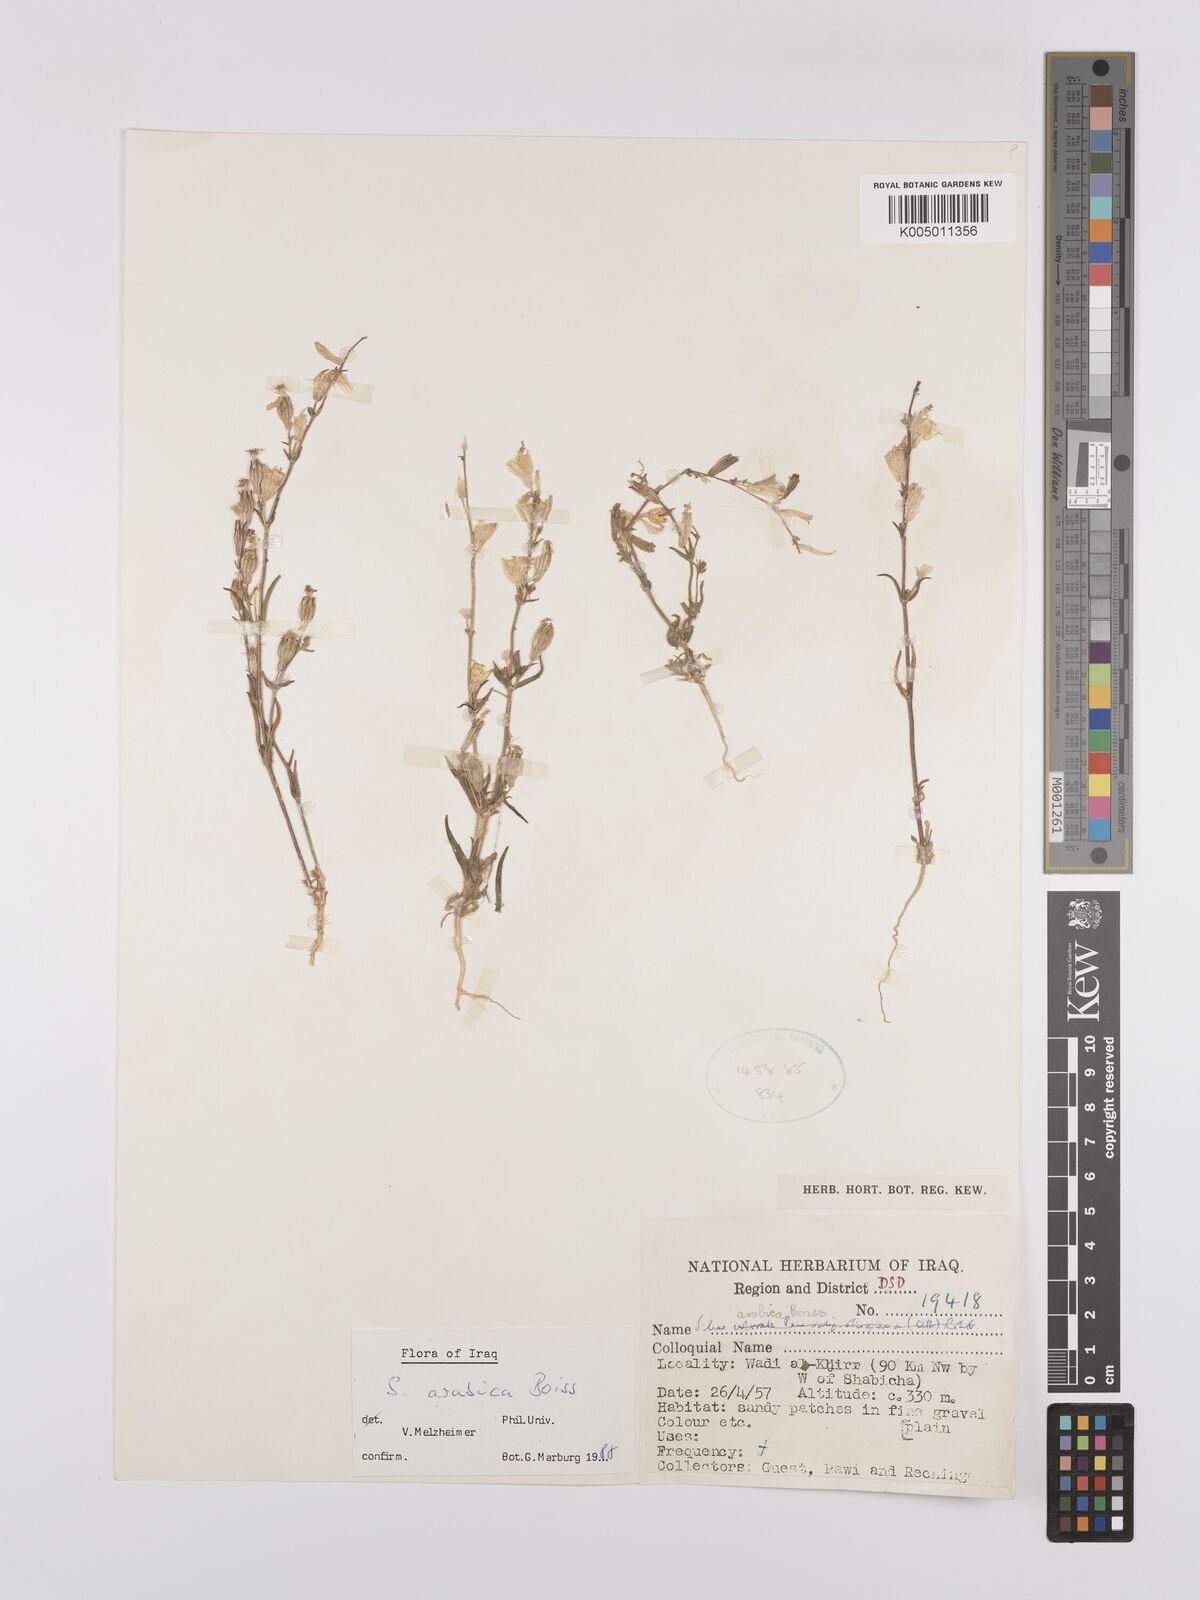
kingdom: Plantae
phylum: Tracheophyta
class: Magnoliopsida
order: Caryophyllales
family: Caryophyllaceae
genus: Silene
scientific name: Silene arabica
